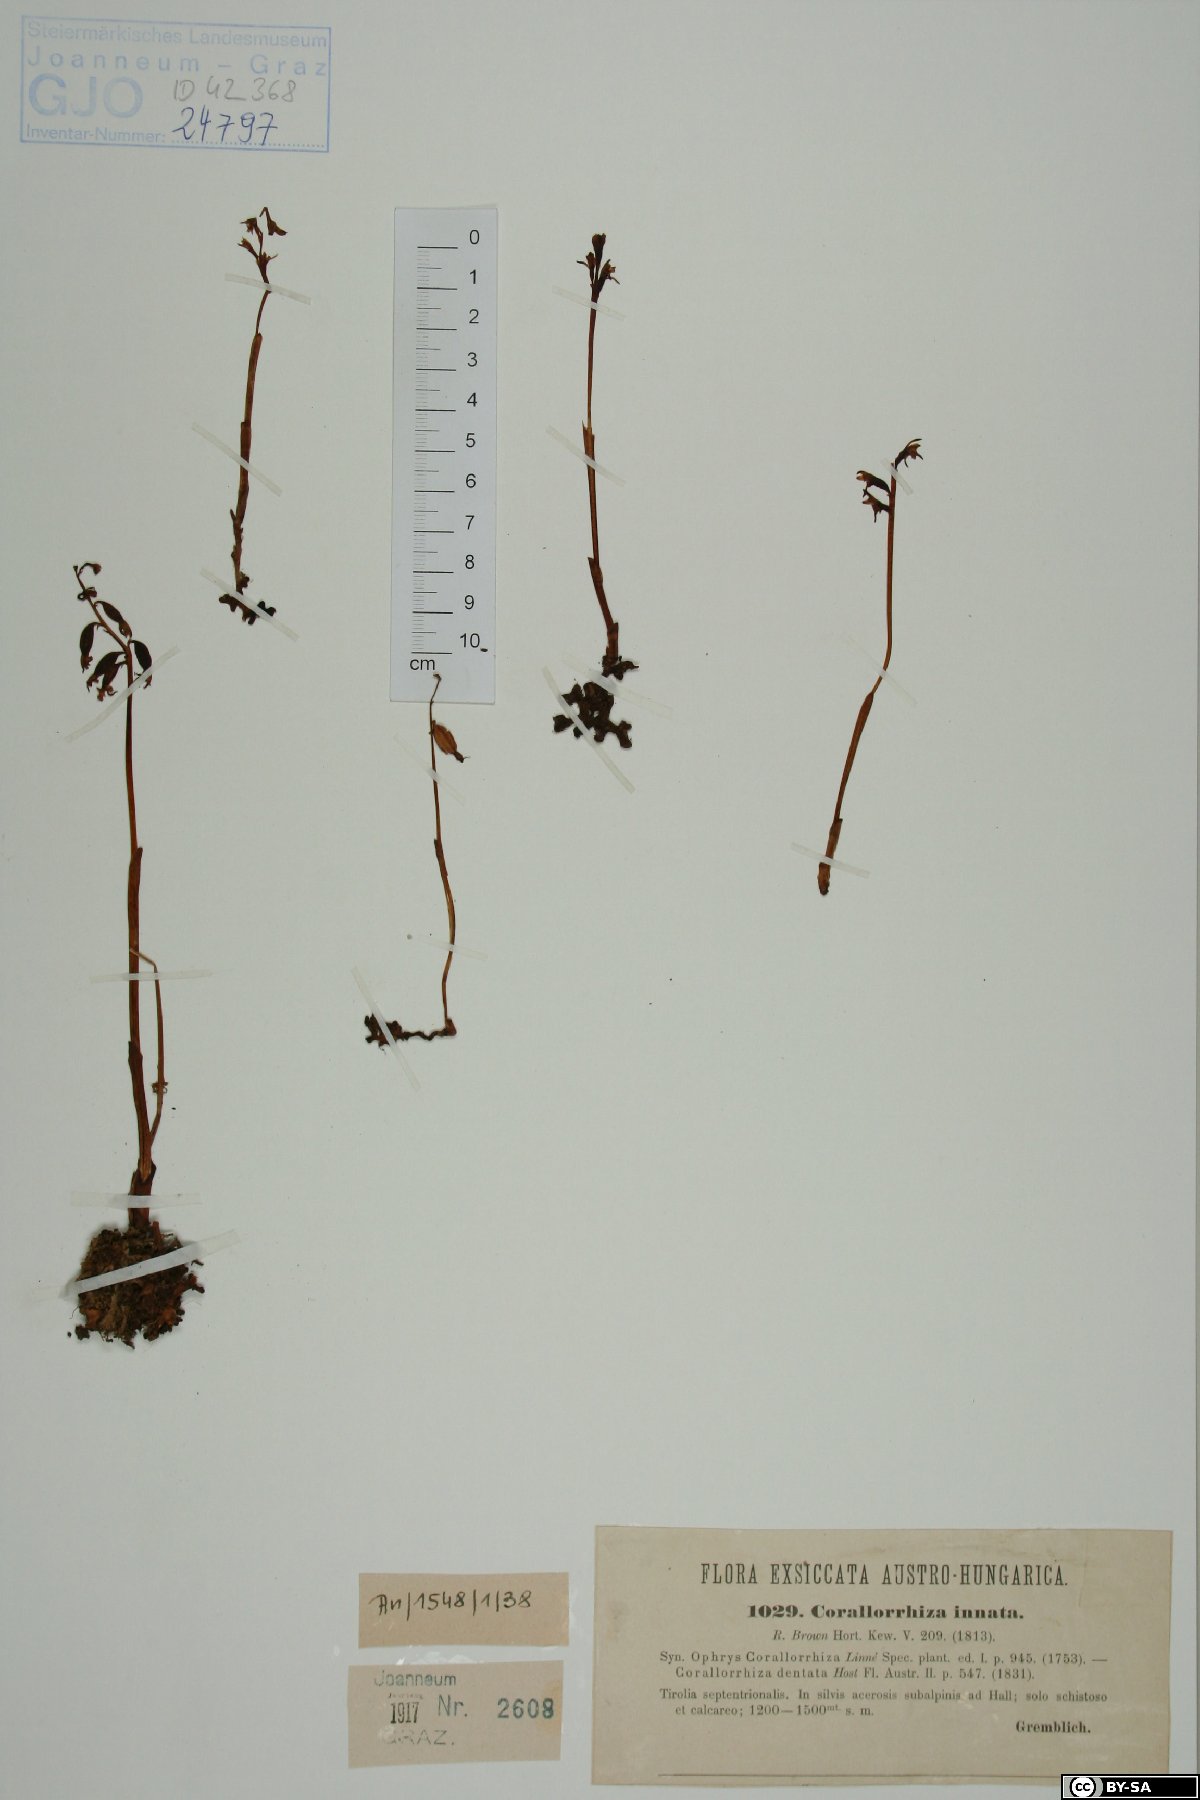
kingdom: Plantae
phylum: Tracheophyta
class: Liliopsida
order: Asparagales
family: Orchidaceae
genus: Corallorhiza
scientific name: Corallorhiza trifida
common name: Yellow coralroot
